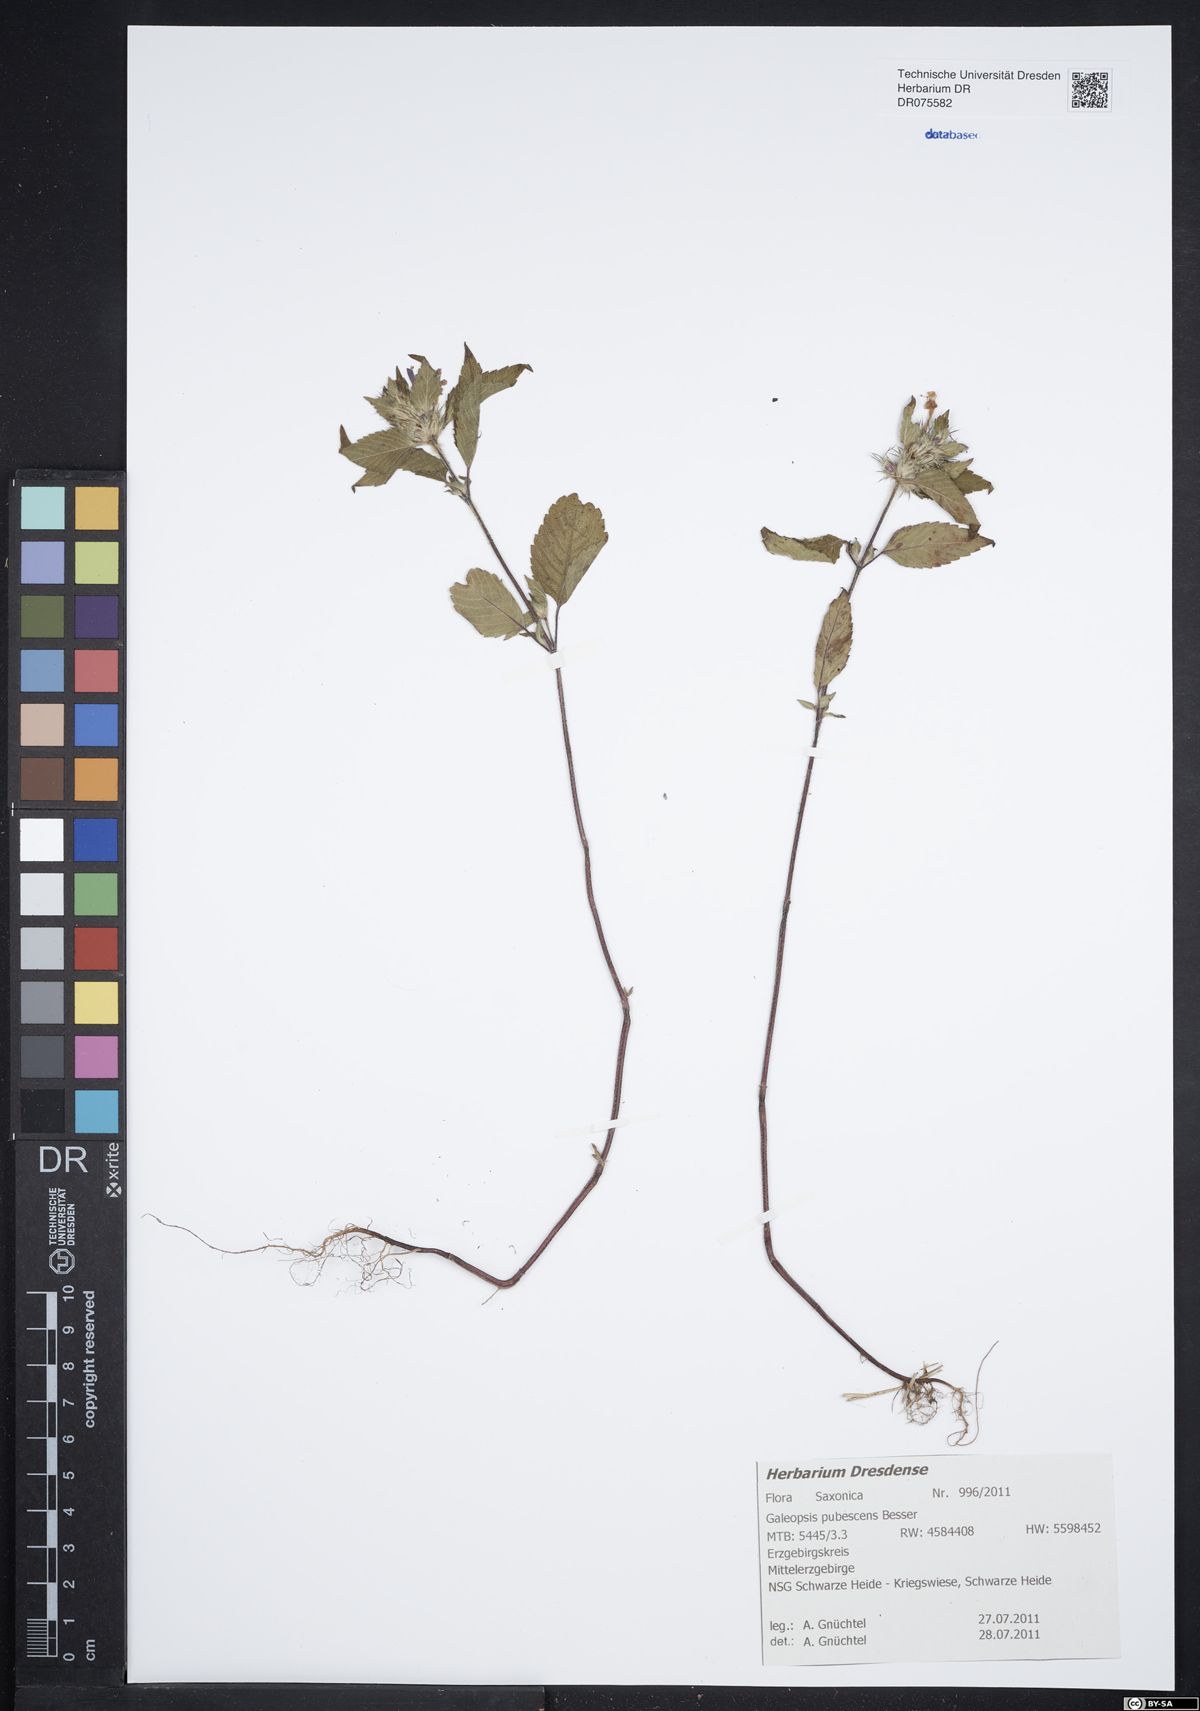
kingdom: Plantae
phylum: Tracheophyta
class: Magnoliopsida
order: Lamiales
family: Lamiaceae
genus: Galeopsis
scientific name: Galeopsis pubescens
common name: Downy hemp-nettle
